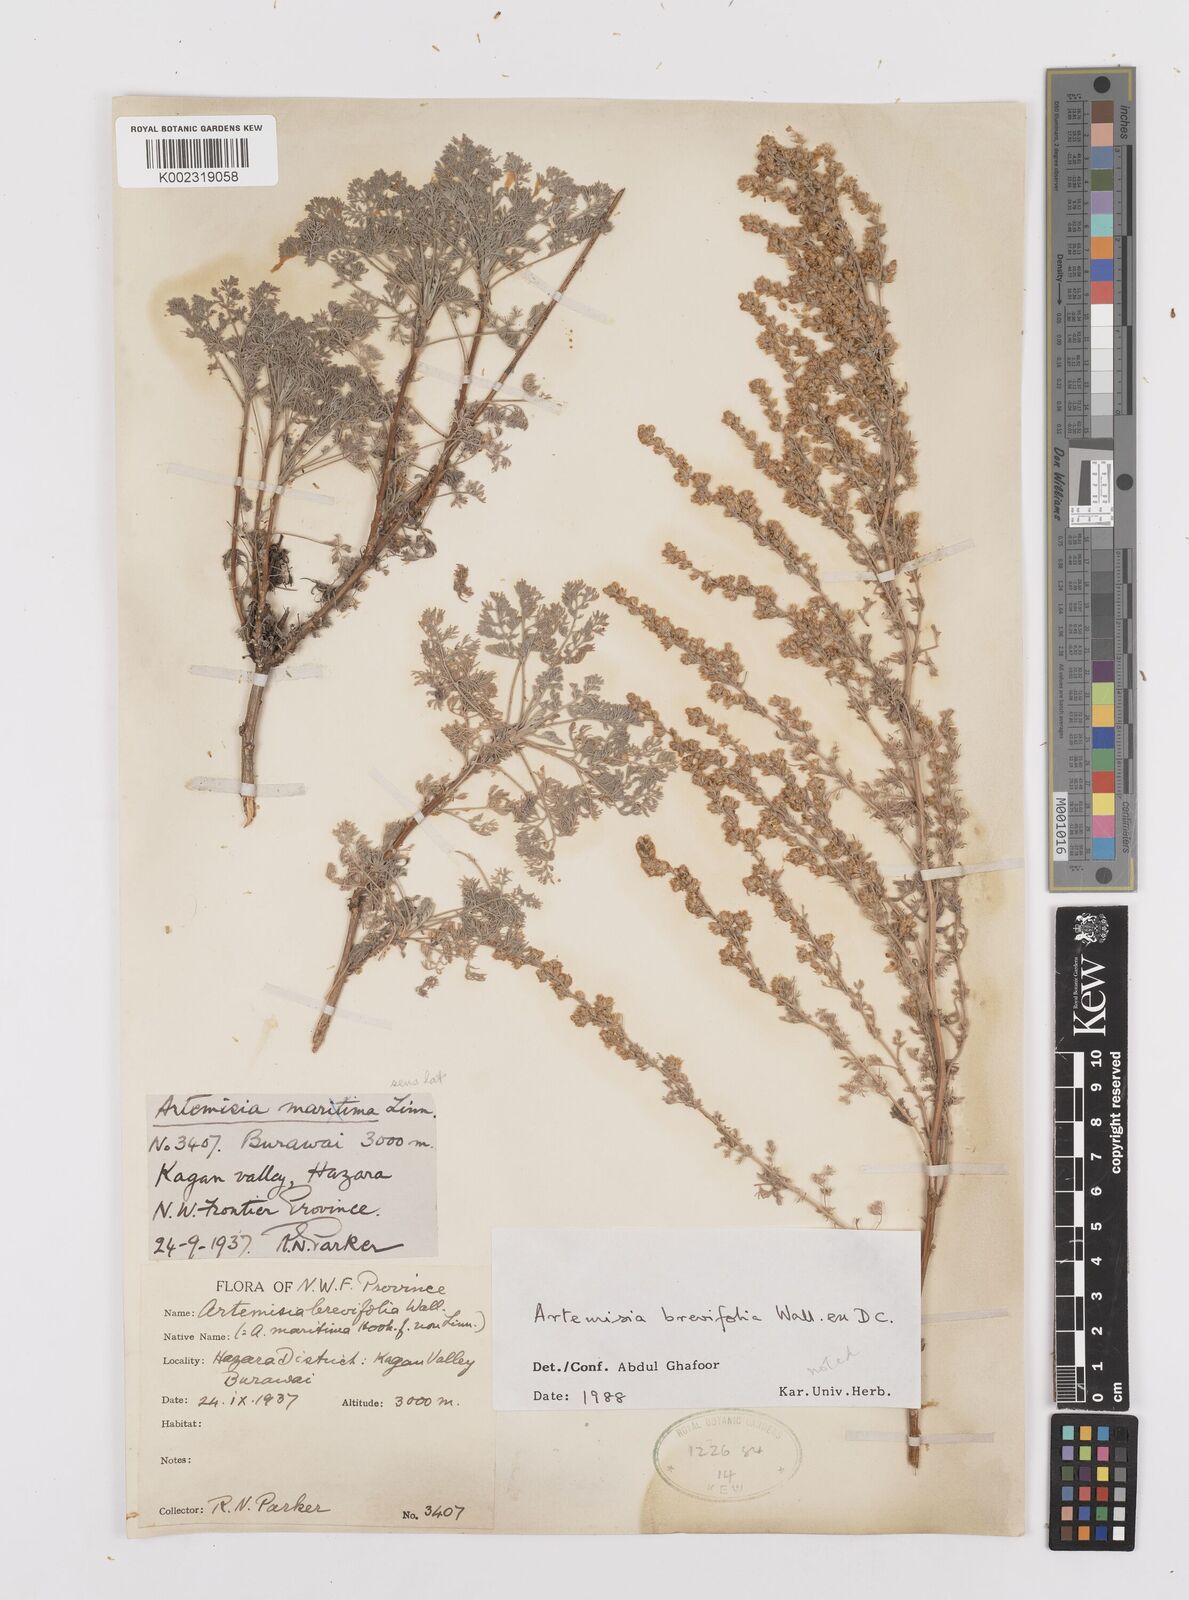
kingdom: Plantae
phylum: Tracheophyta
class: Magnoliopsida
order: Asterales
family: Asteraceae
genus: Artemisia
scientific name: Artemisia brevifolia
